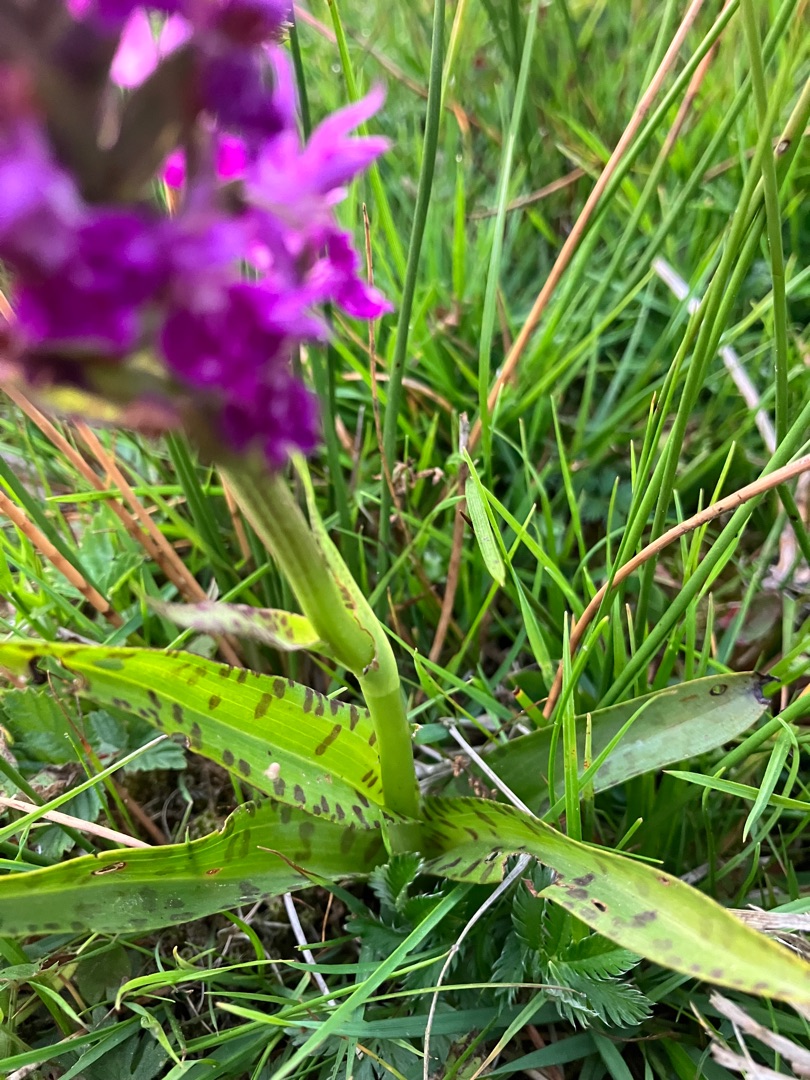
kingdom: Plantae
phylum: Tracheophyta
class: Liliopsida
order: Asparagales
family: Orchidaceae
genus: Dactylorhiza
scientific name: Dactylorhiza majalis
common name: Vendsyssel-gøgeurt
